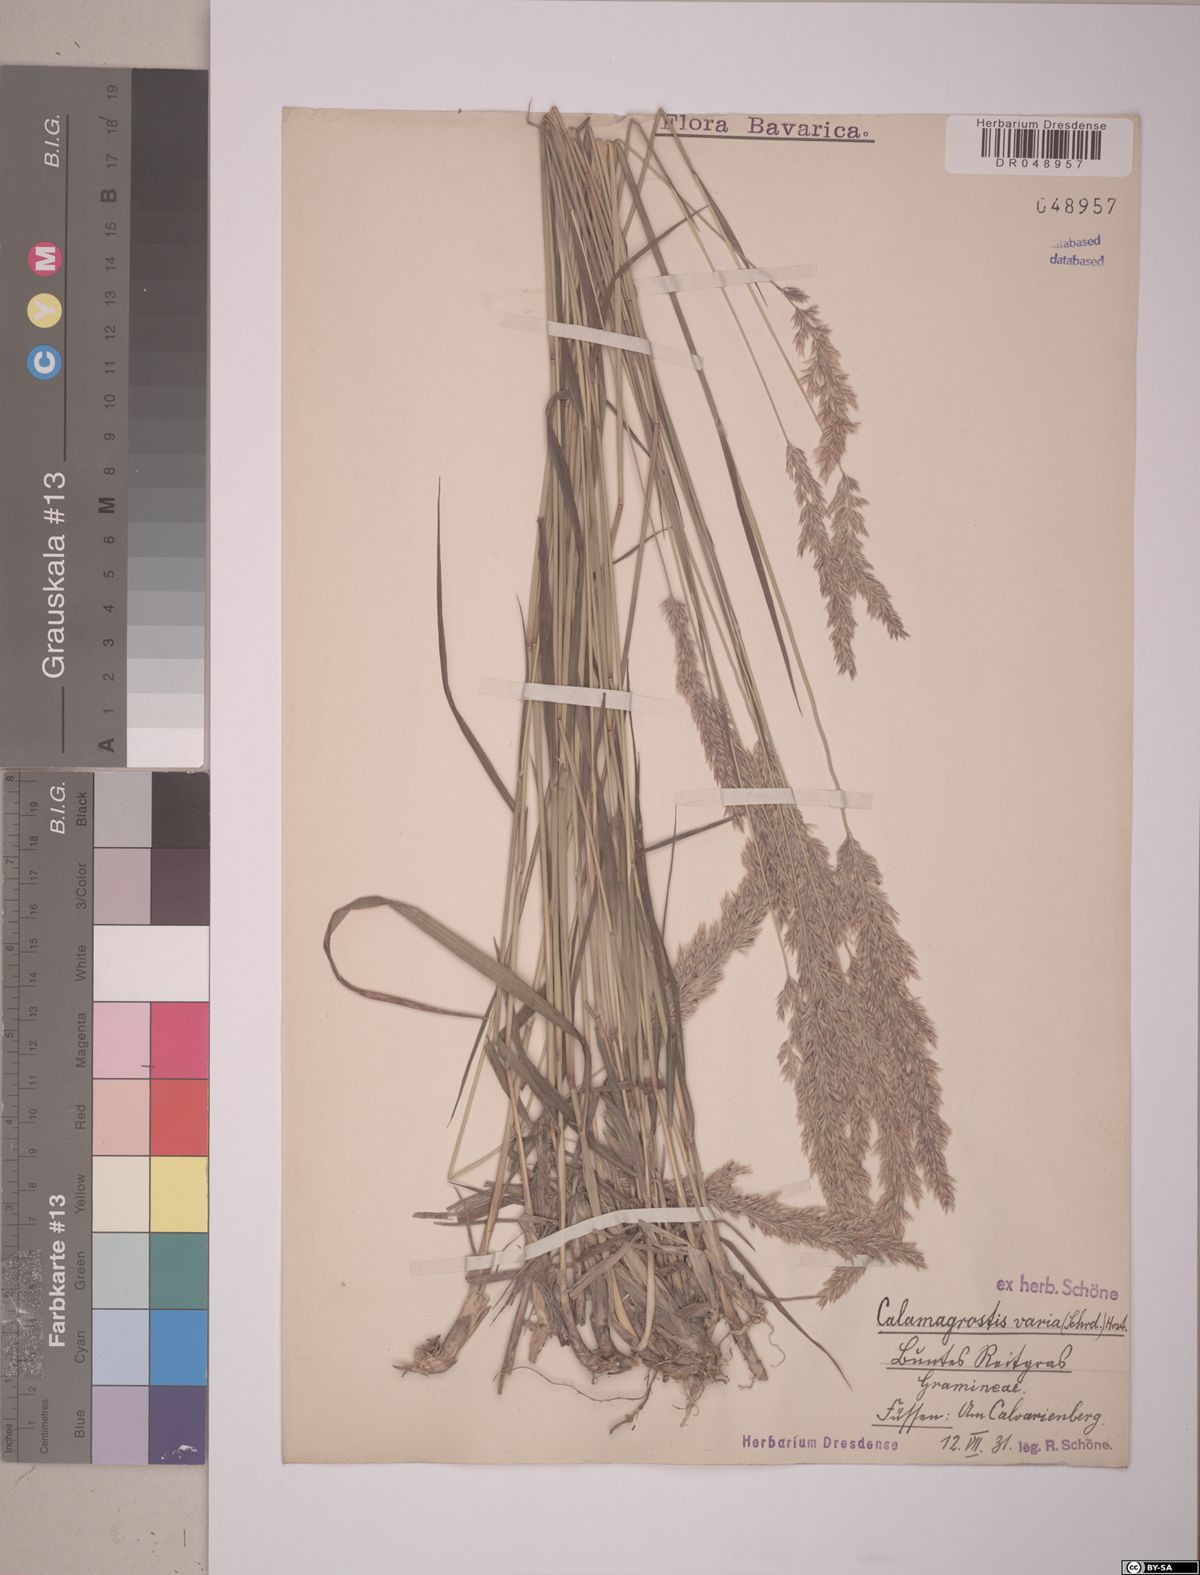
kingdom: Plantae
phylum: Tracheophyta
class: Liliopsida
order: Poales
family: Poaceae
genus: Calamagrostis
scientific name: Calamagrostis varia
